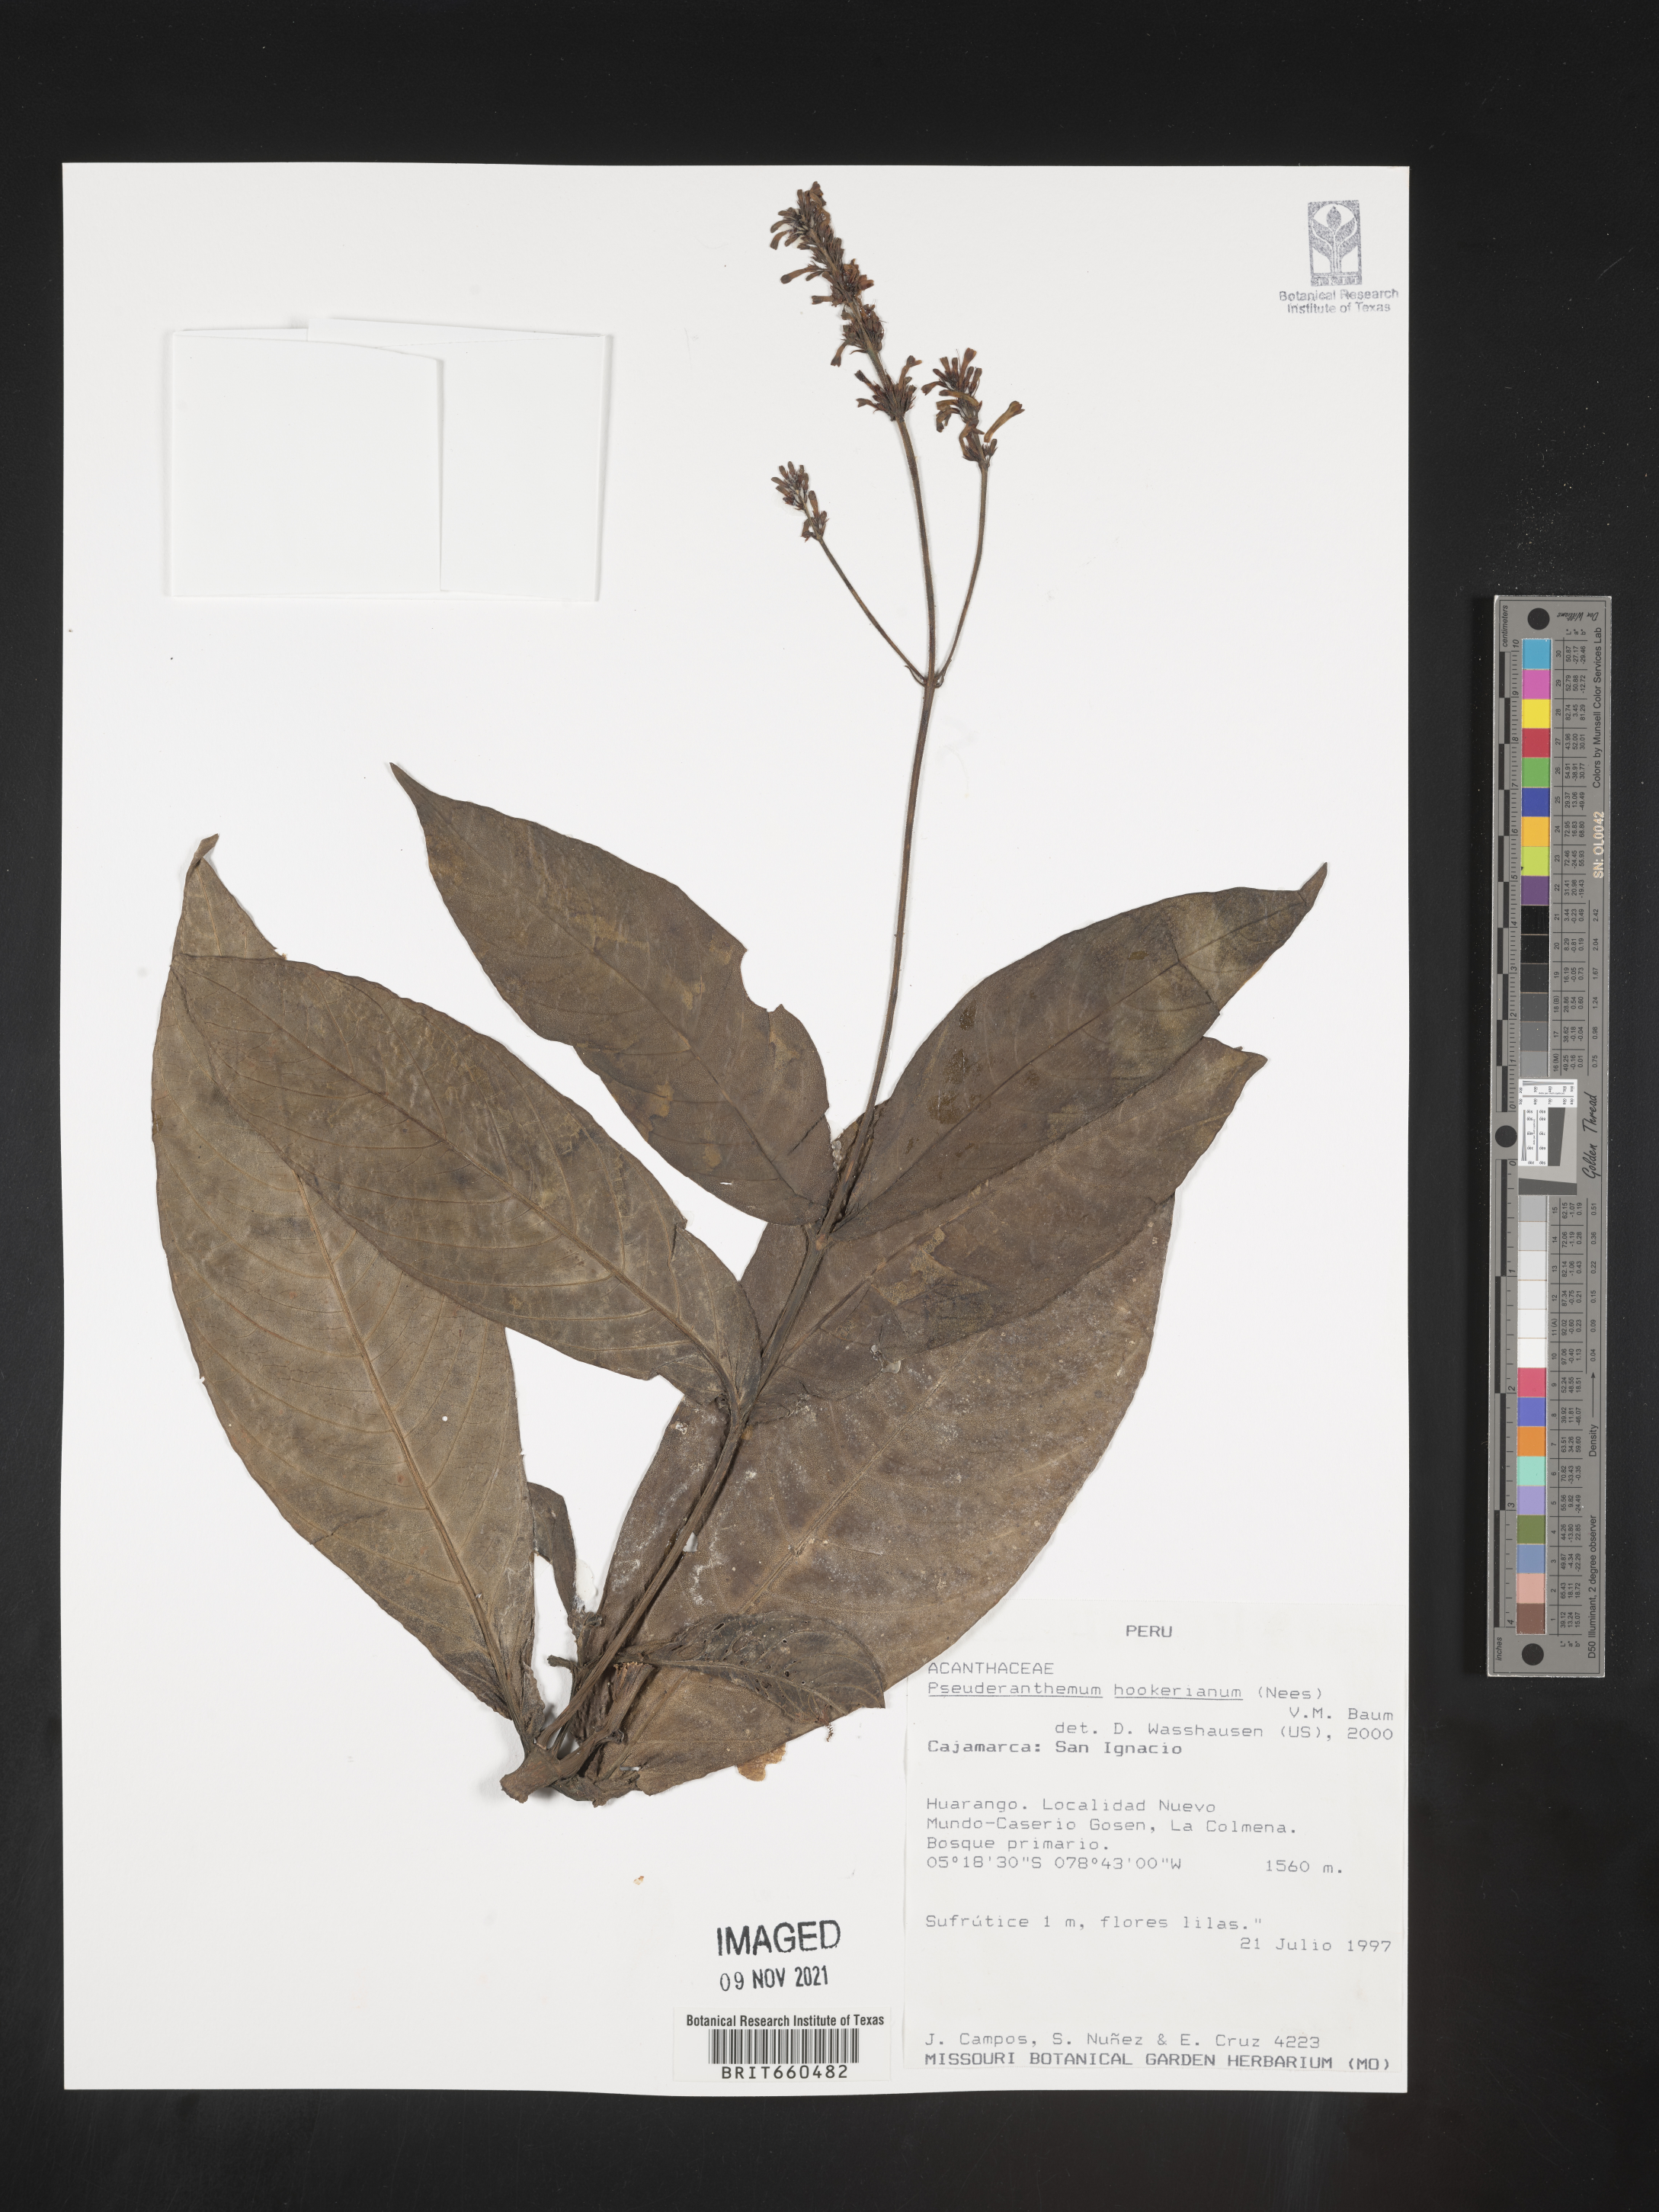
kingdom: Plantae
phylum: Tracheophyta
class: Magnoliopsida
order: Lamiales
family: Acanthaceae
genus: Pseuderanthemum
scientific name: Pseuderanthemum
